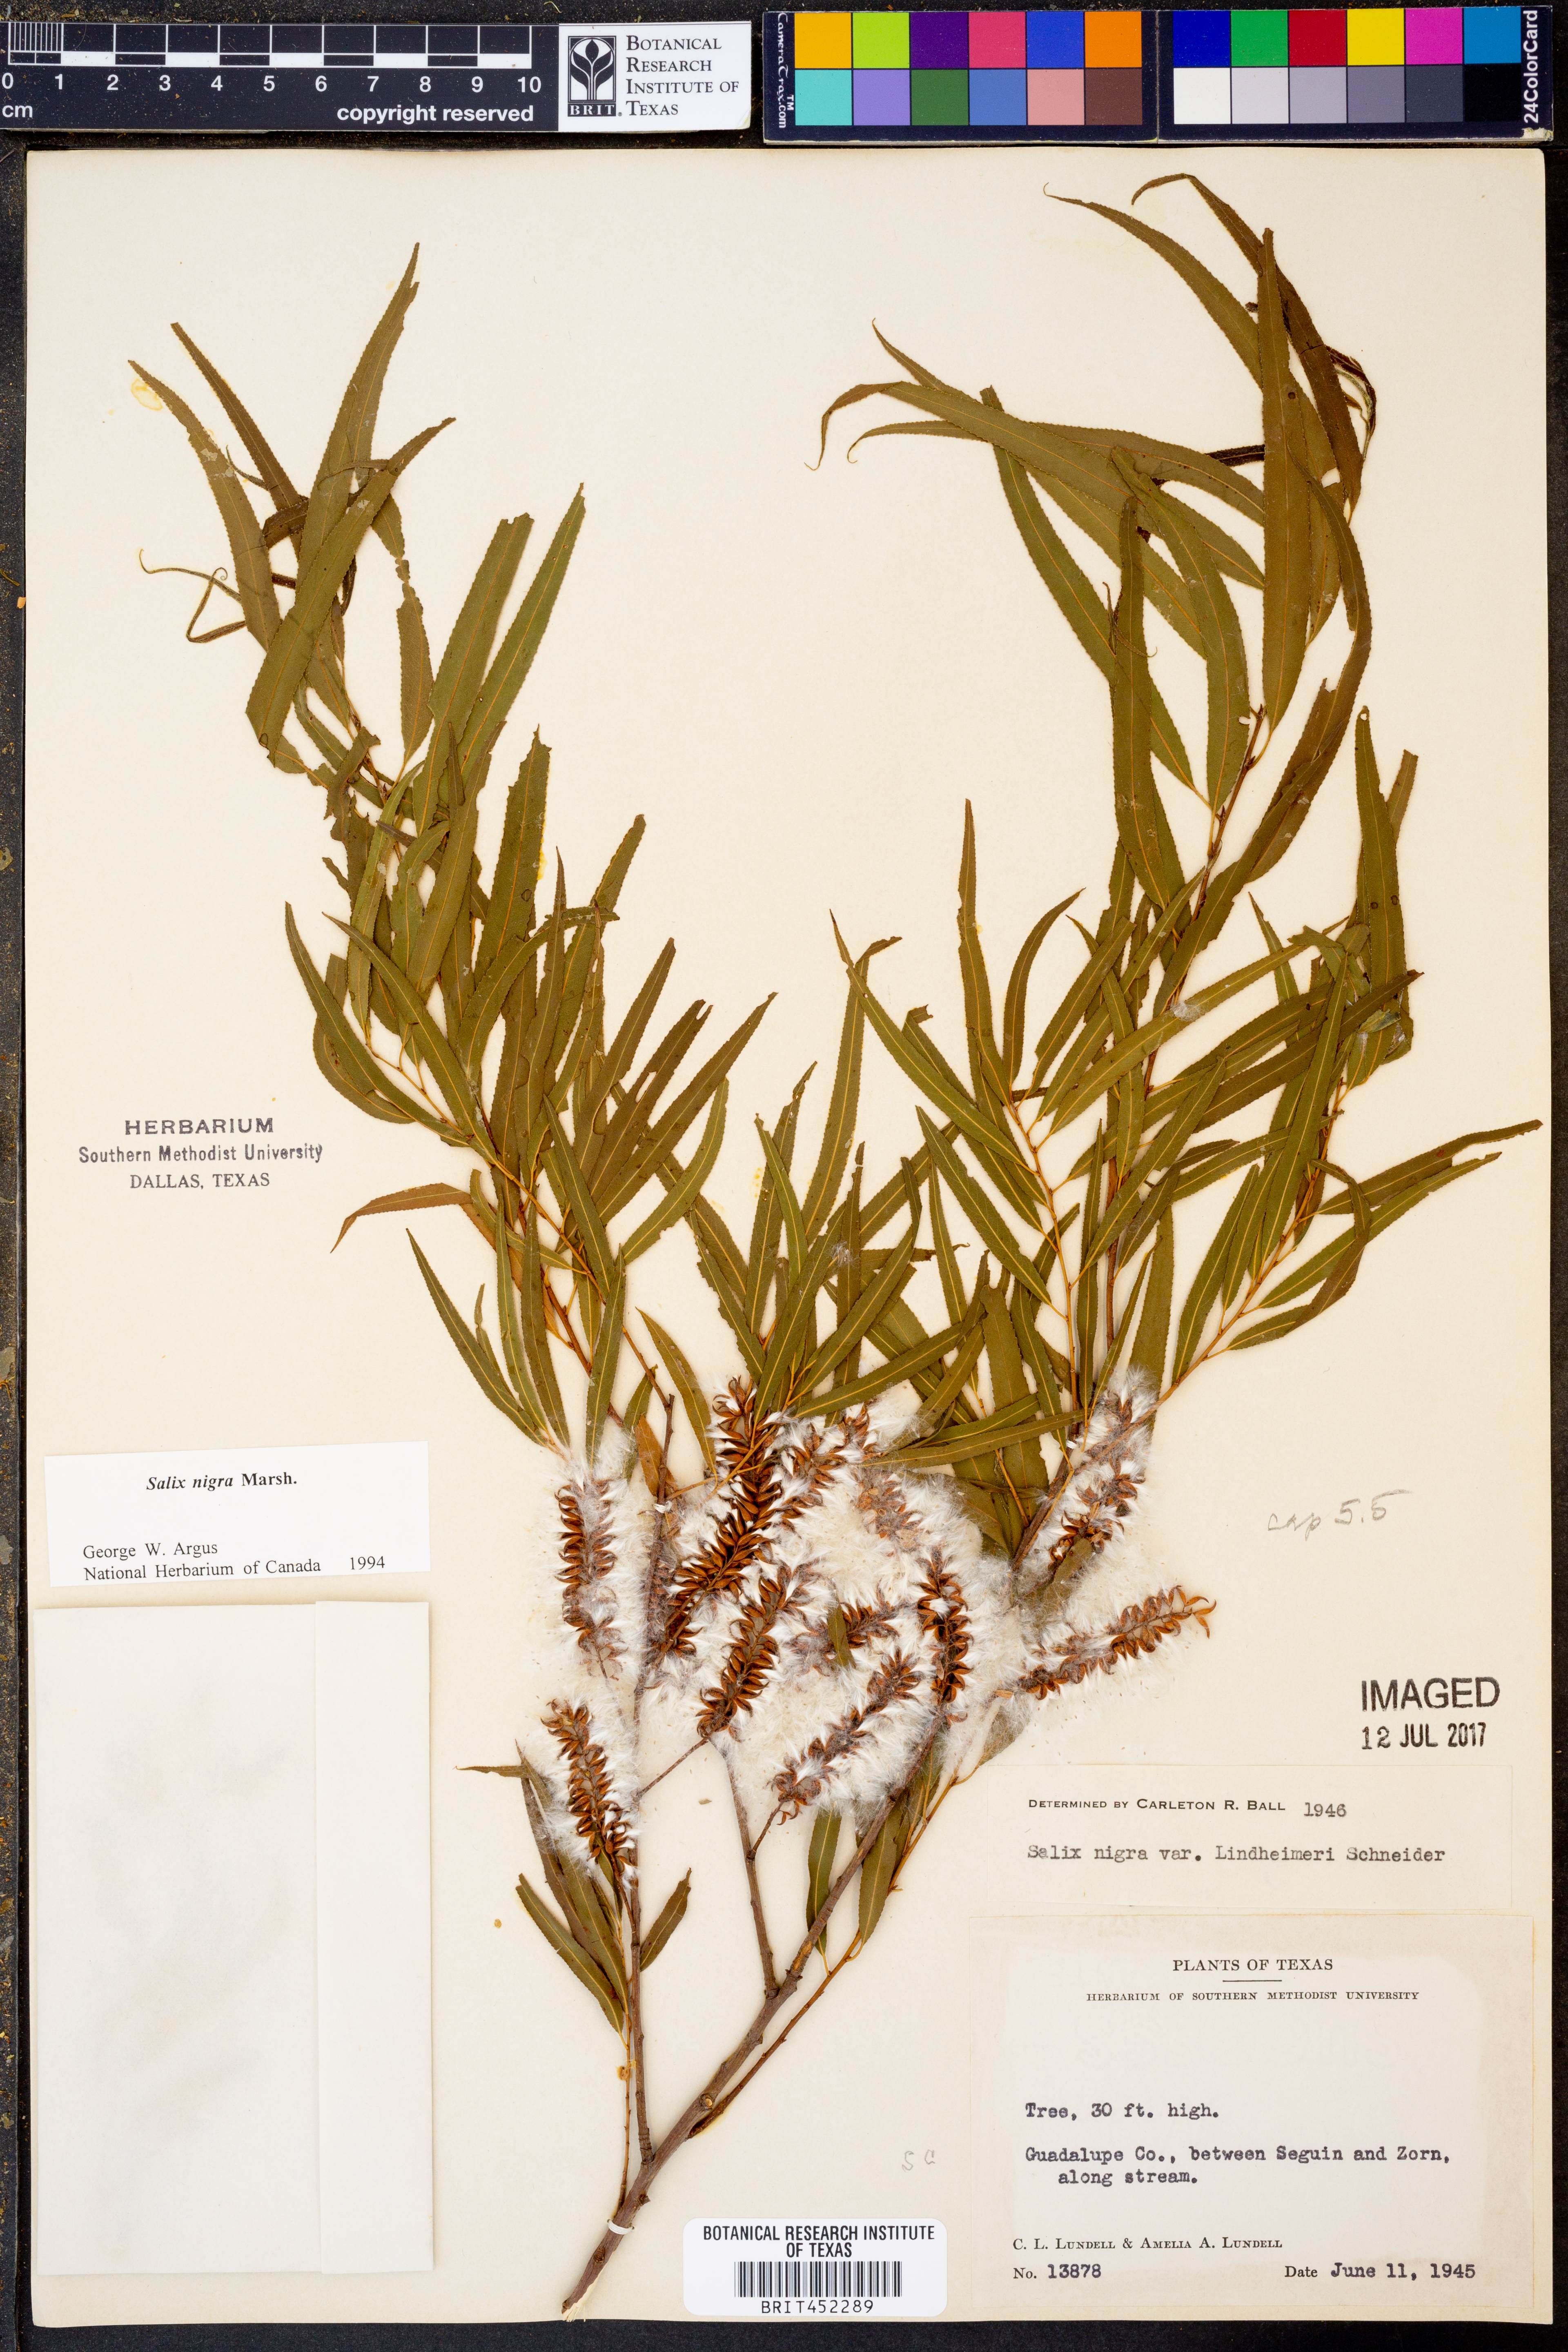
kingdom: Plantae
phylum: Tracheophyta
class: Magnoliopsida
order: Malpighiales
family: Salicaceae
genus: Salix
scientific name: Salix nigra
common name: Black willow
